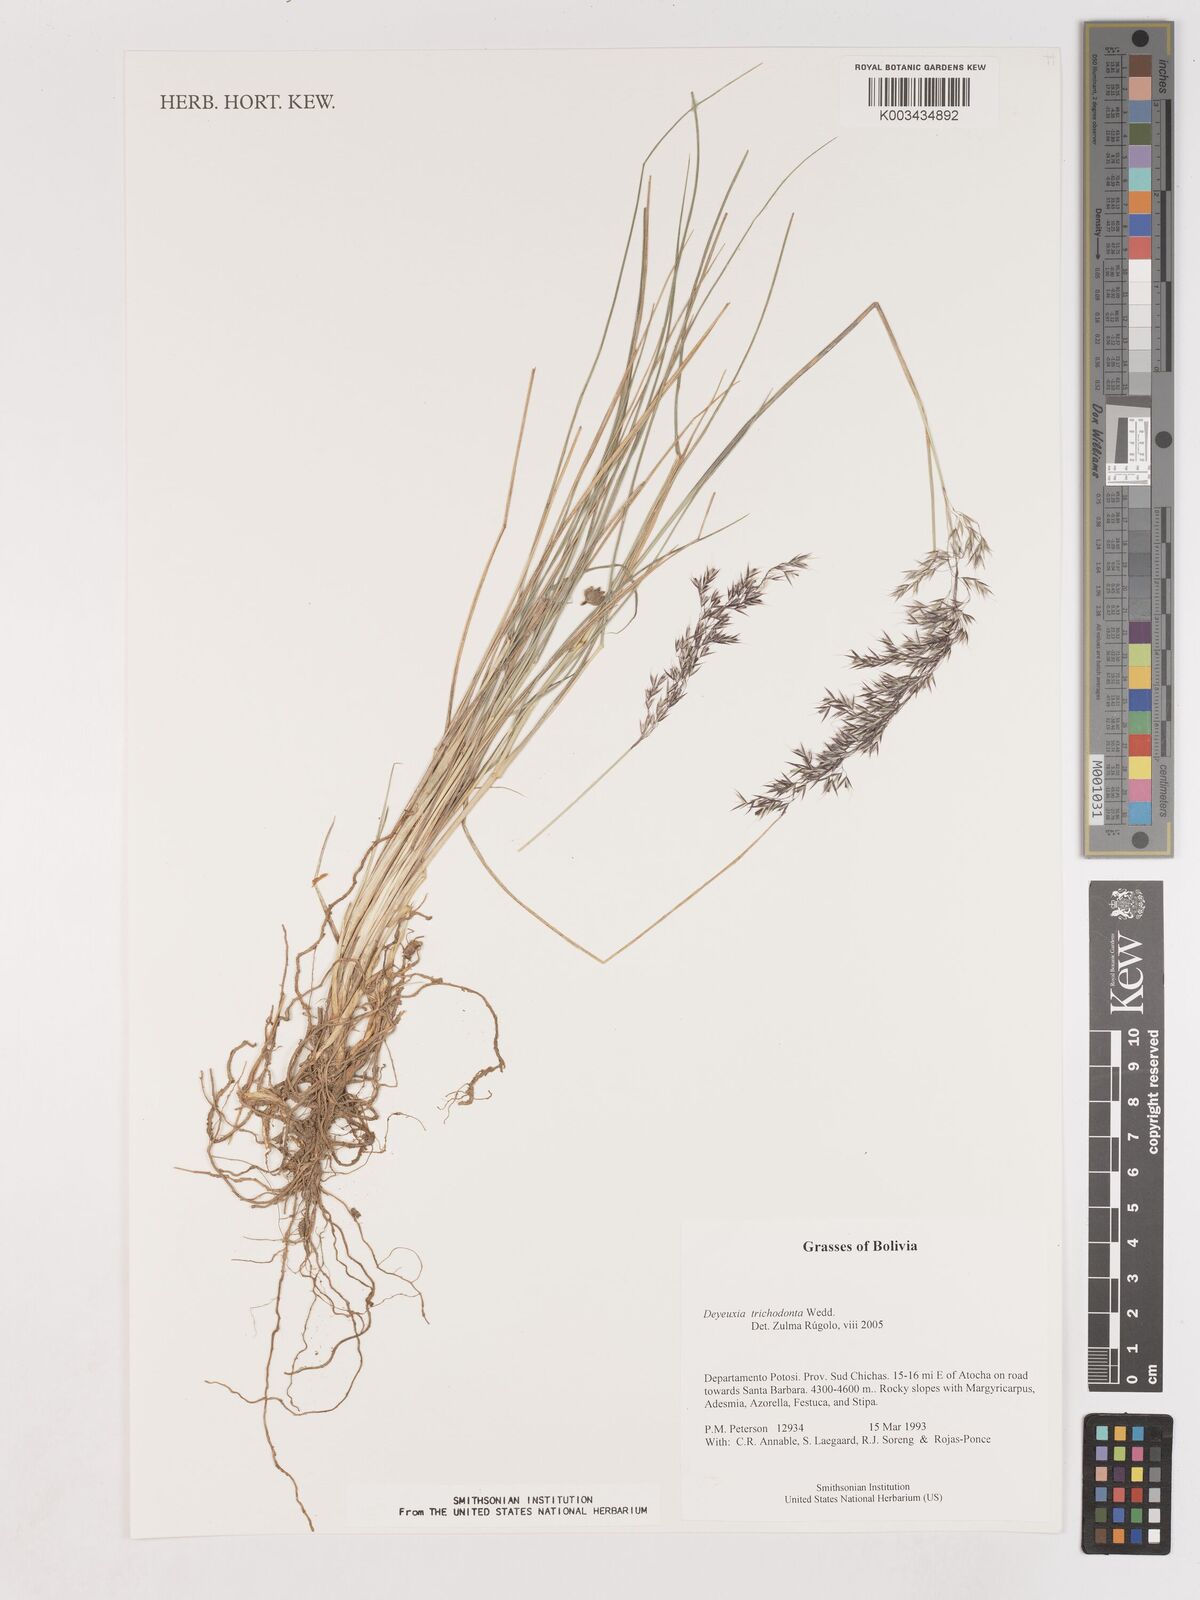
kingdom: Plantae
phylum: Tracheophyta
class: Liliopsida
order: Poales
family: Poaceae
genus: Cinnagrostis
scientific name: Cinnagrostis trichodonta
